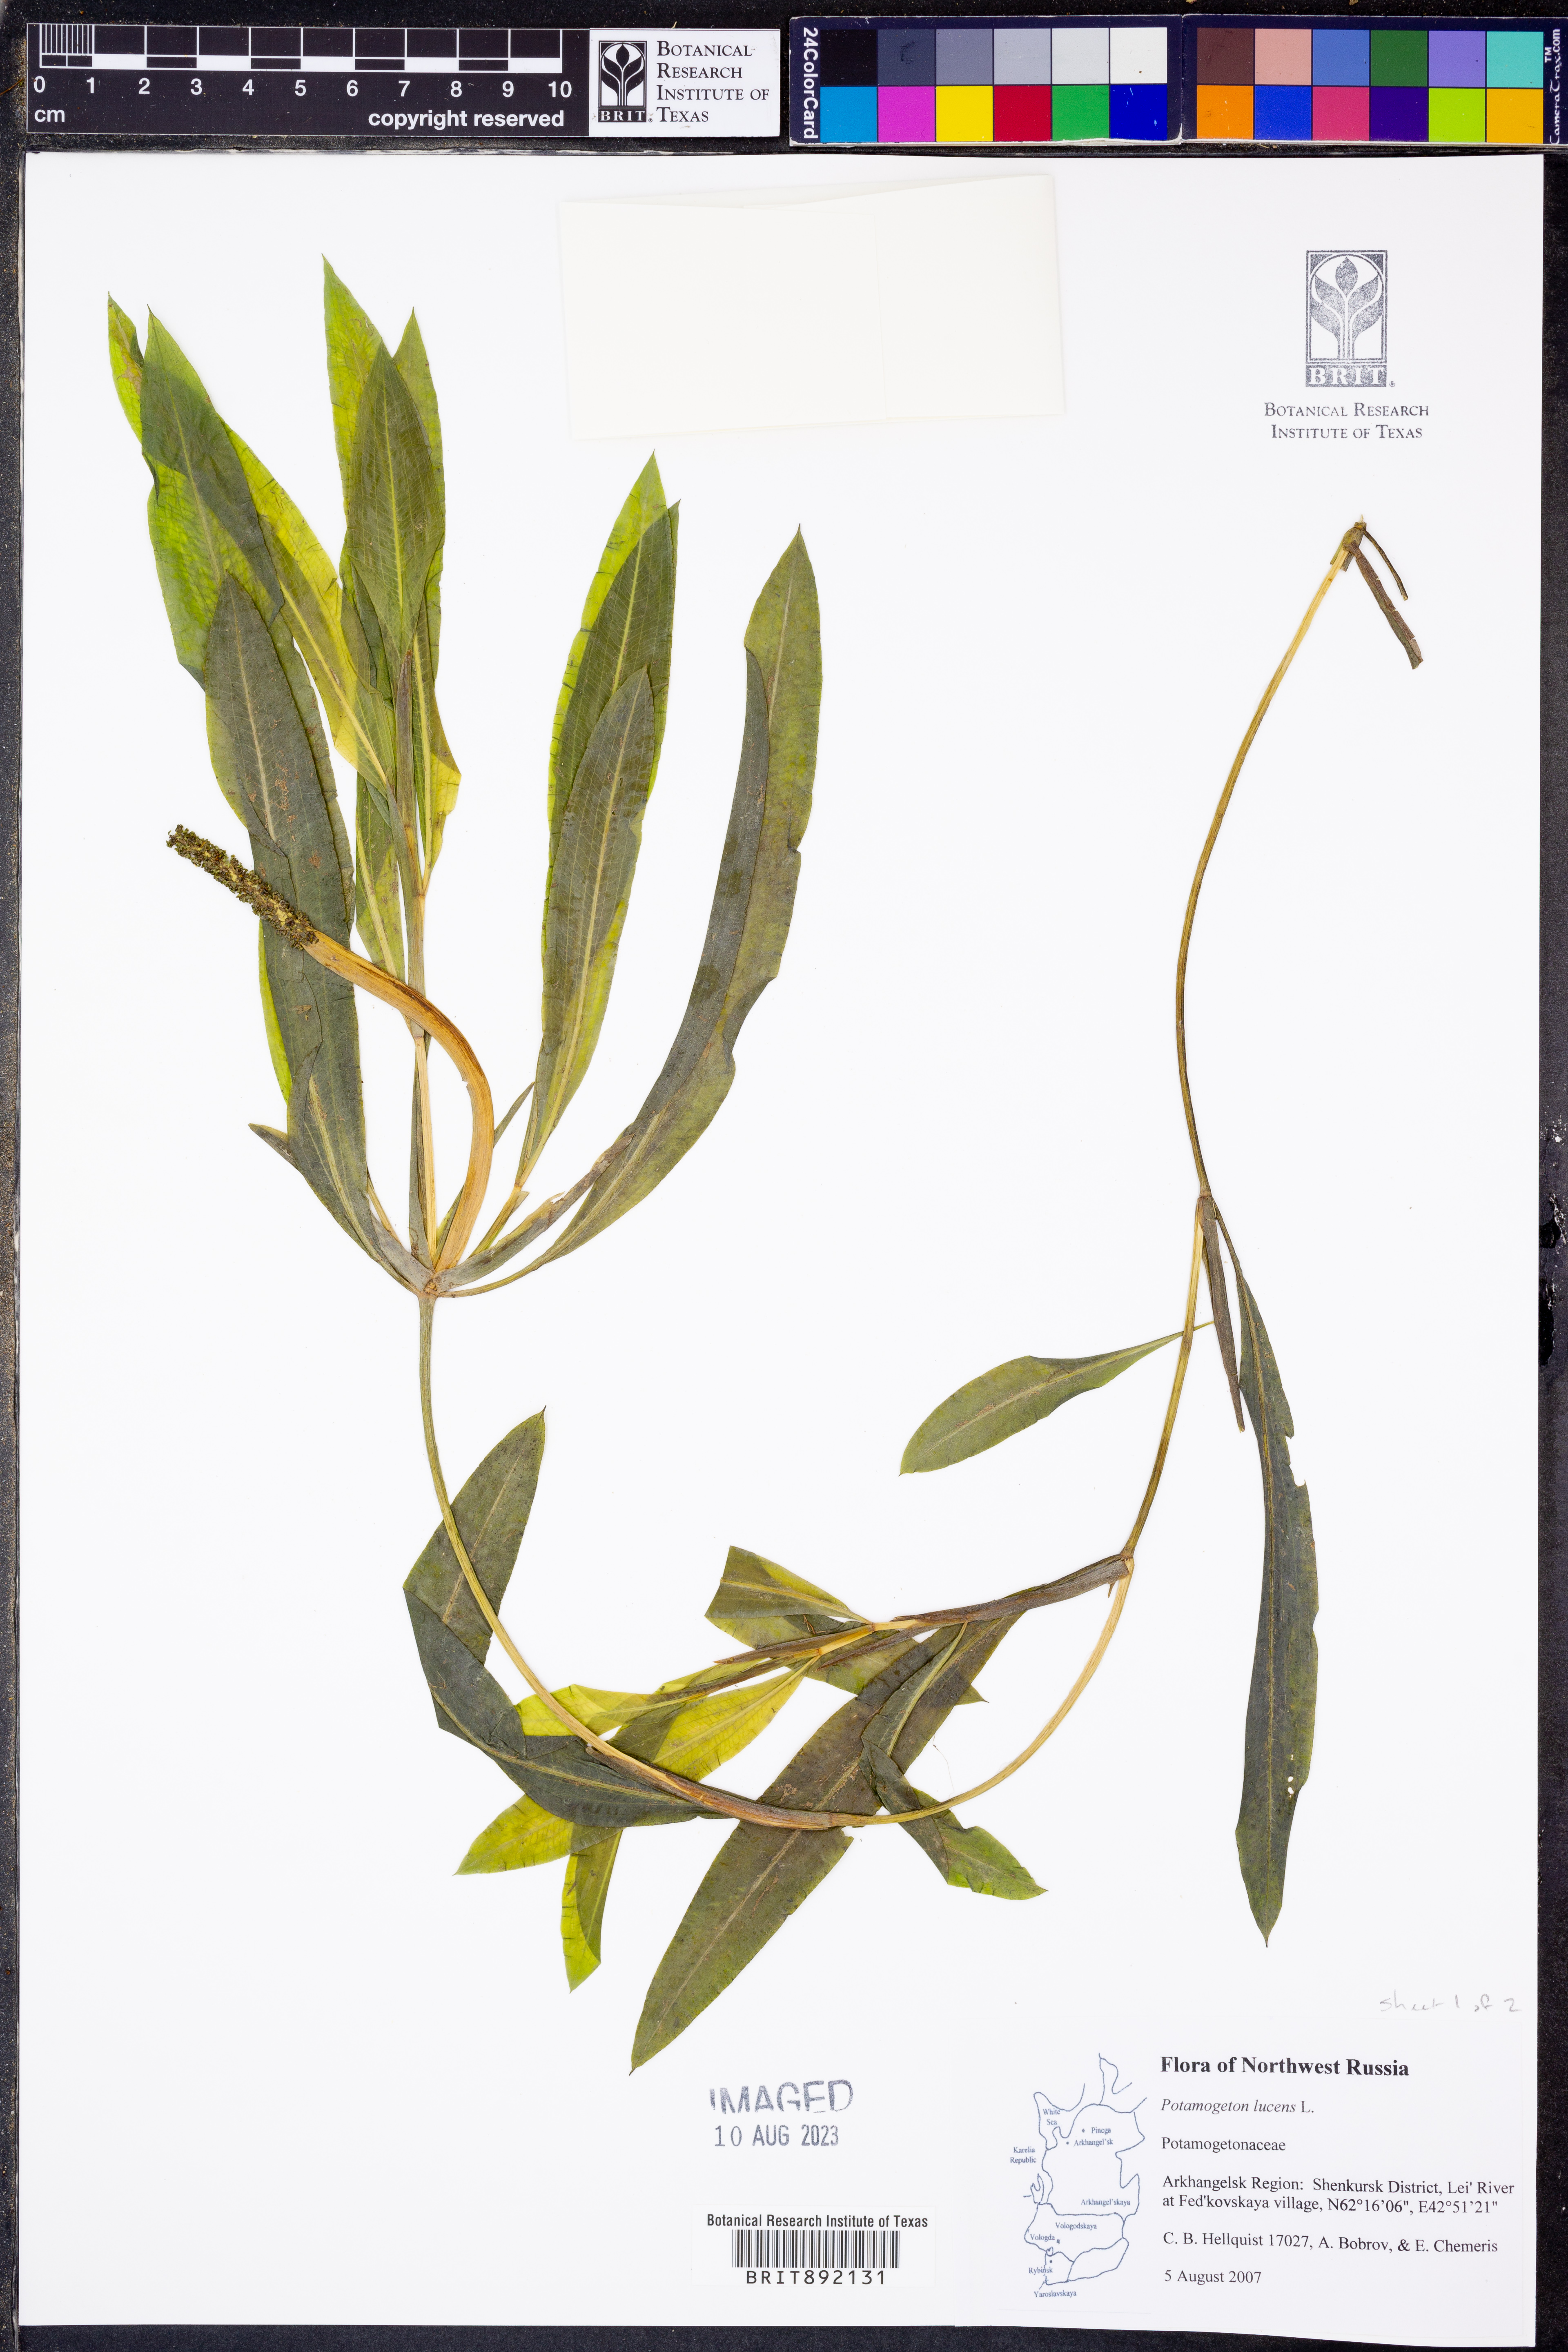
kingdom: Plantae
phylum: Tracheophyta
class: Liliopsida
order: Alismatales
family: Potamogetonaceae
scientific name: Potamogetonaceae
